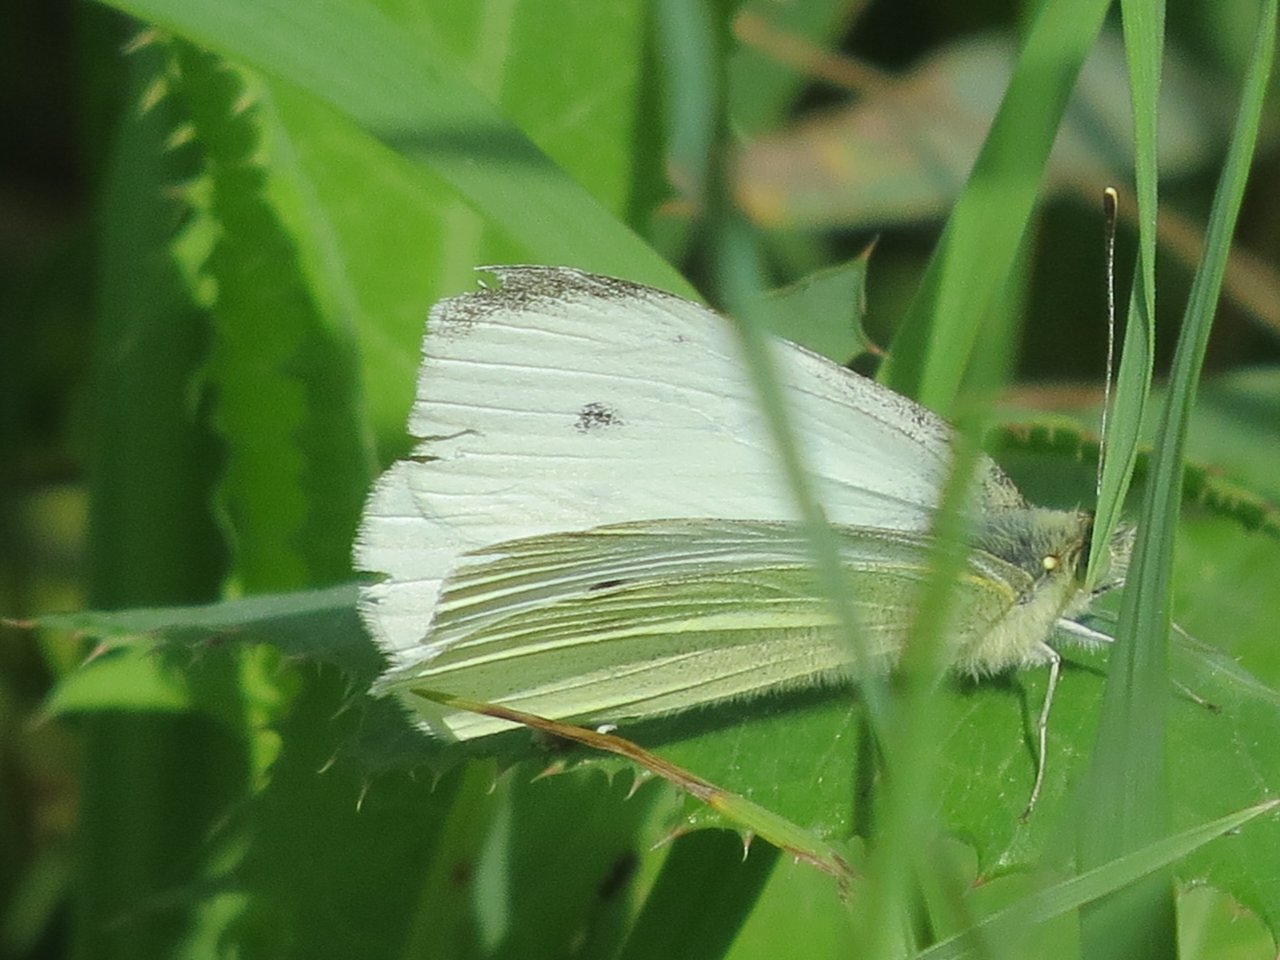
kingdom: Animalia
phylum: Arthropoda
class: Insecta
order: Lepidoptera
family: Pieridae
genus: Pieris
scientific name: Pieris rapae
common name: Cabbage White
